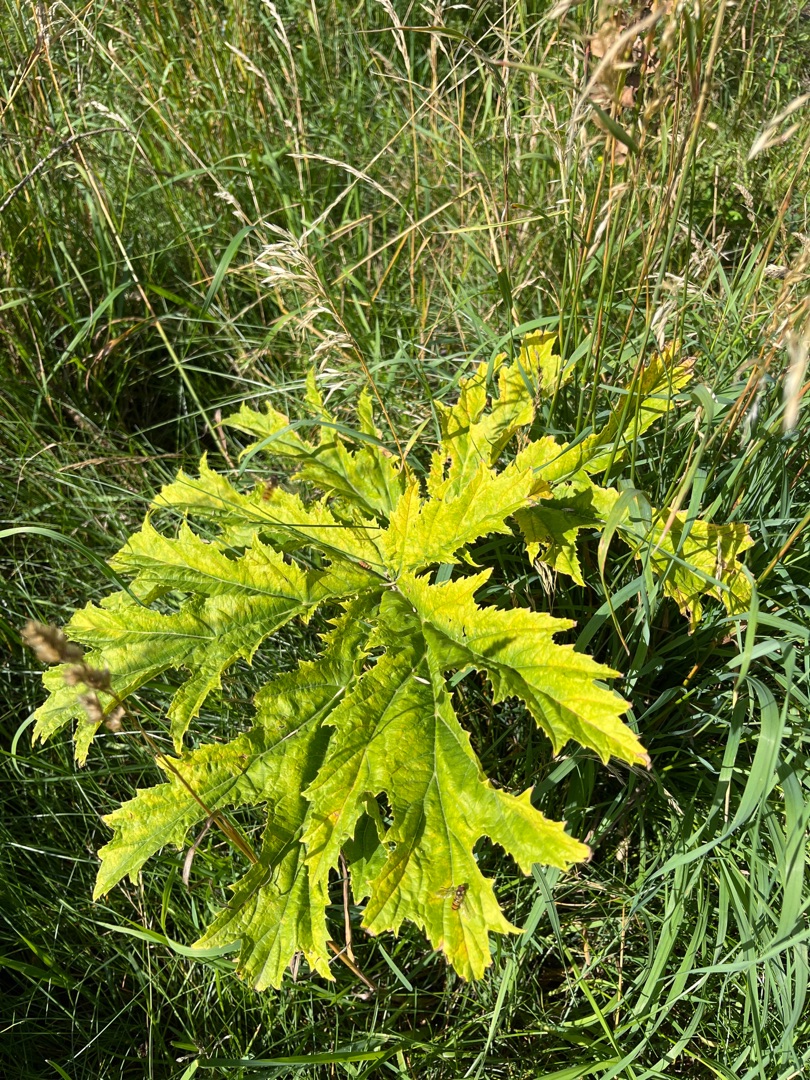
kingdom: Plantae
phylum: Tracheophyta
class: Magnoliopsida
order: Apiales
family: Apiaceae
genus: Heracleum
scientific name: Heracleum mantegazzianum
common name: Kæmpe-bjørneklo
